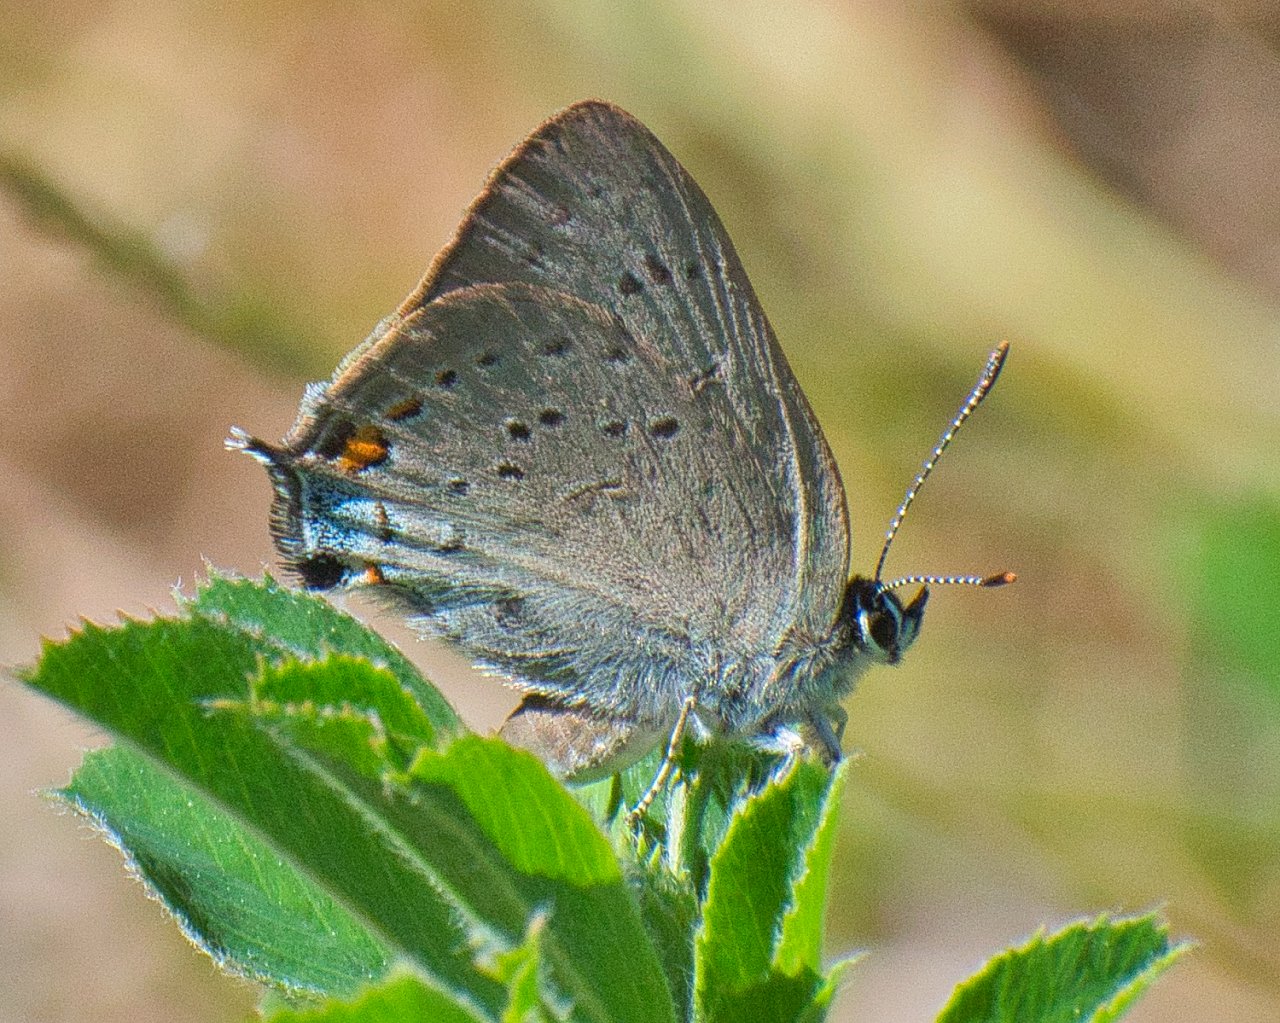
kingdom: Animalia
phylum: Arthropoda
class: Insecta
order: Lepidoptera
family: Lycaenidae
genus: Strymon
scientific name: Strymon sylvinus
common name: Sylvan Hairstreak
